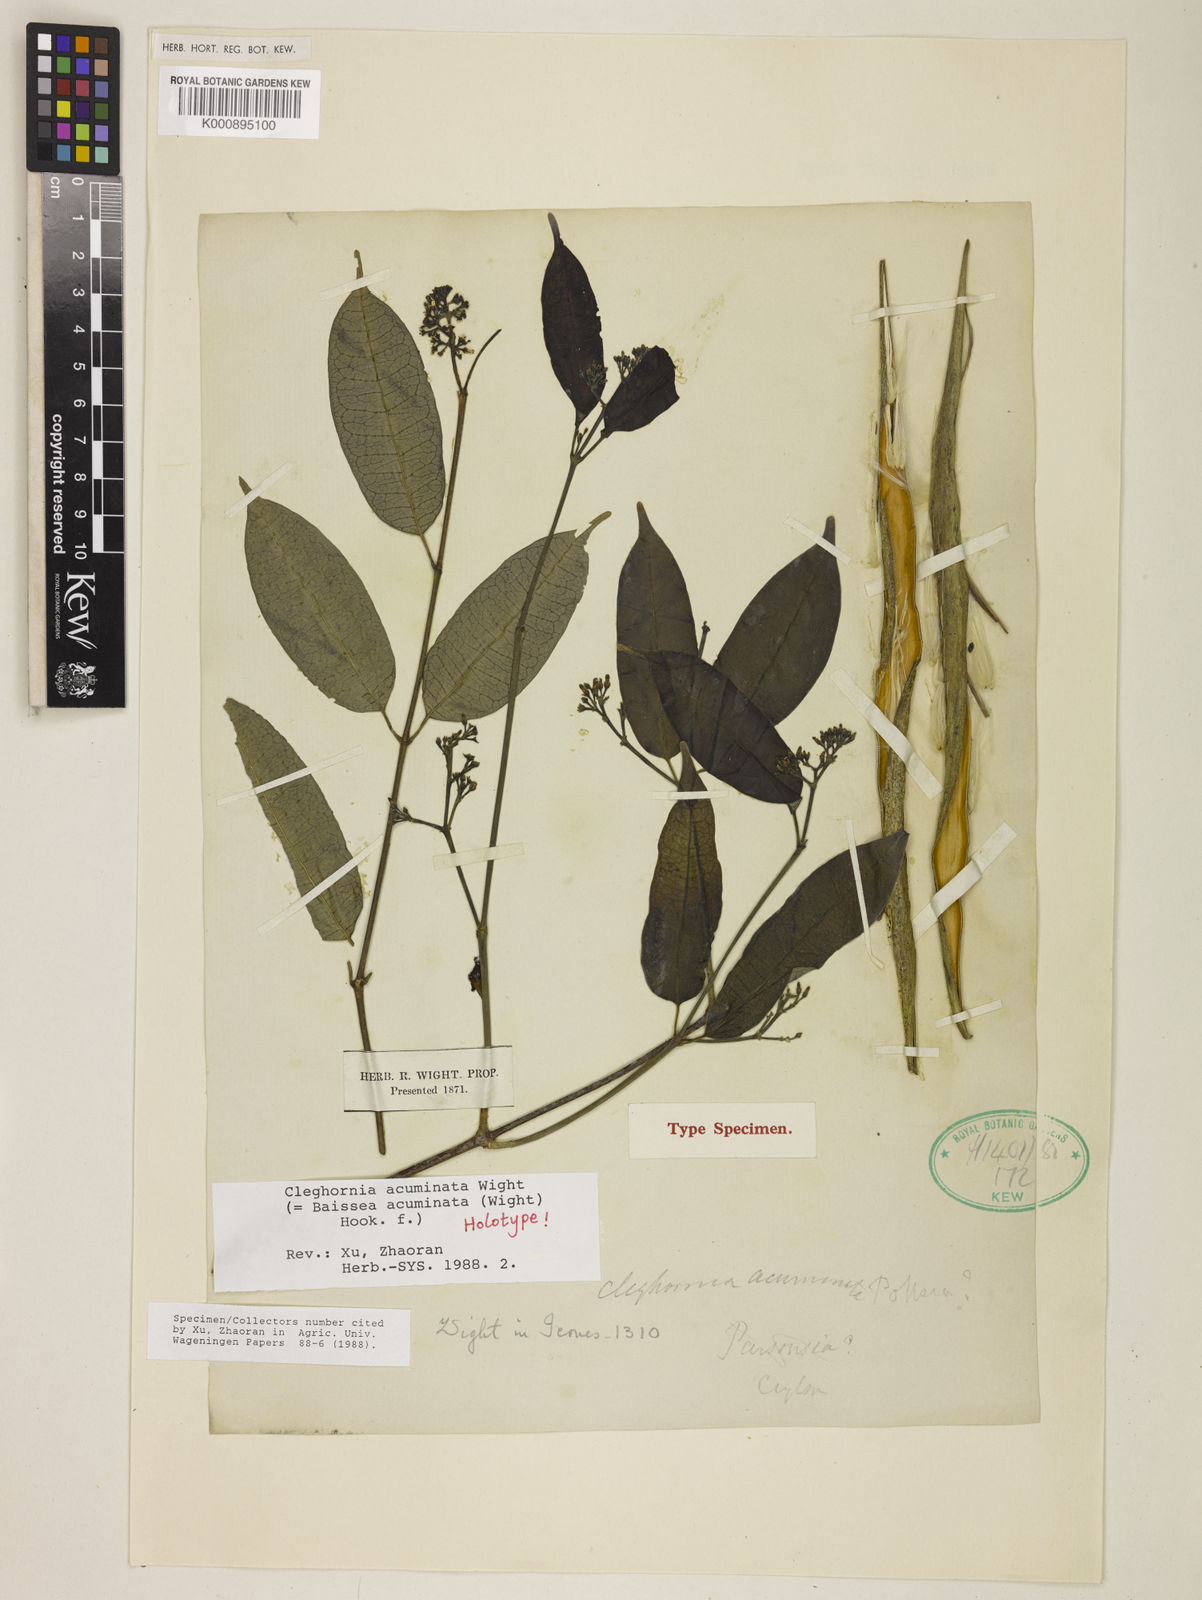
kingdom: Plantae
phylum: Tracheophyta
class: Magnoliopsida
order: Gentianales
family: Apocynaceae
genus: Cleghornia
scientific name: Cleghornia acuminata
